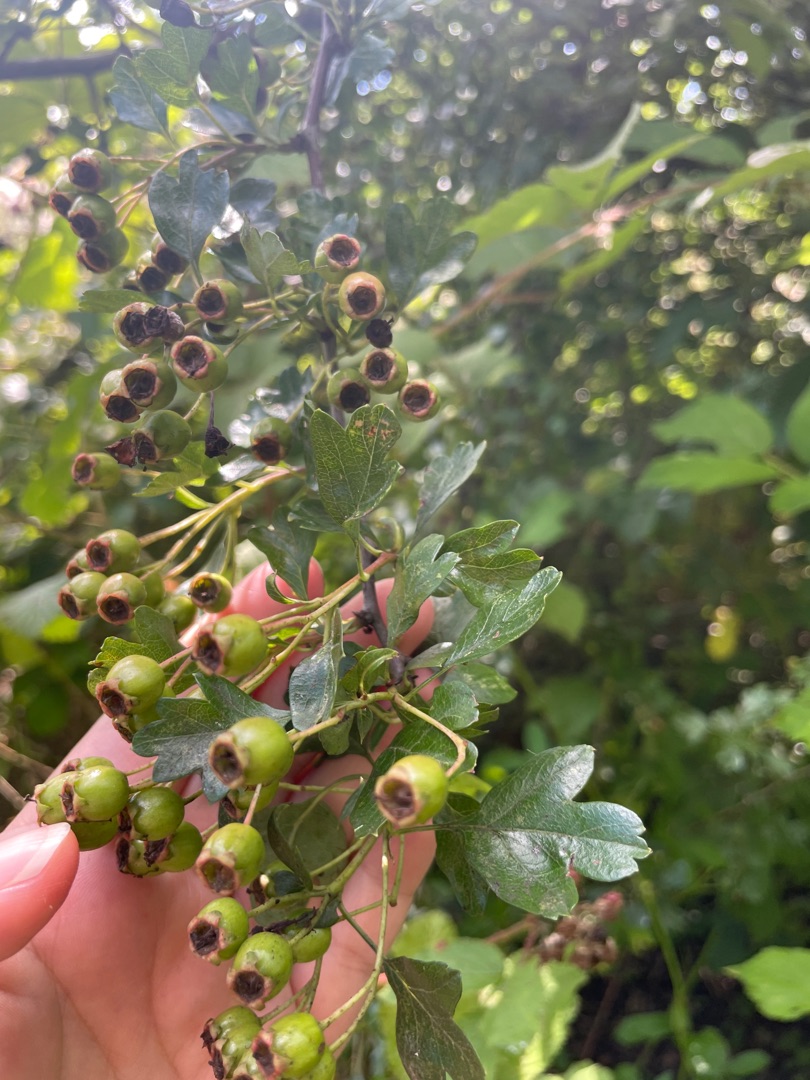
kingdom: Plantae
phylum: Tracheophyta
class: Magnoliopsida
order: Rosales
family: Rosaceae
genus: Crataegus
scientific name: Crataegus media
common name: Almindelig hvidtjørn × engriflet hvidtjørn
